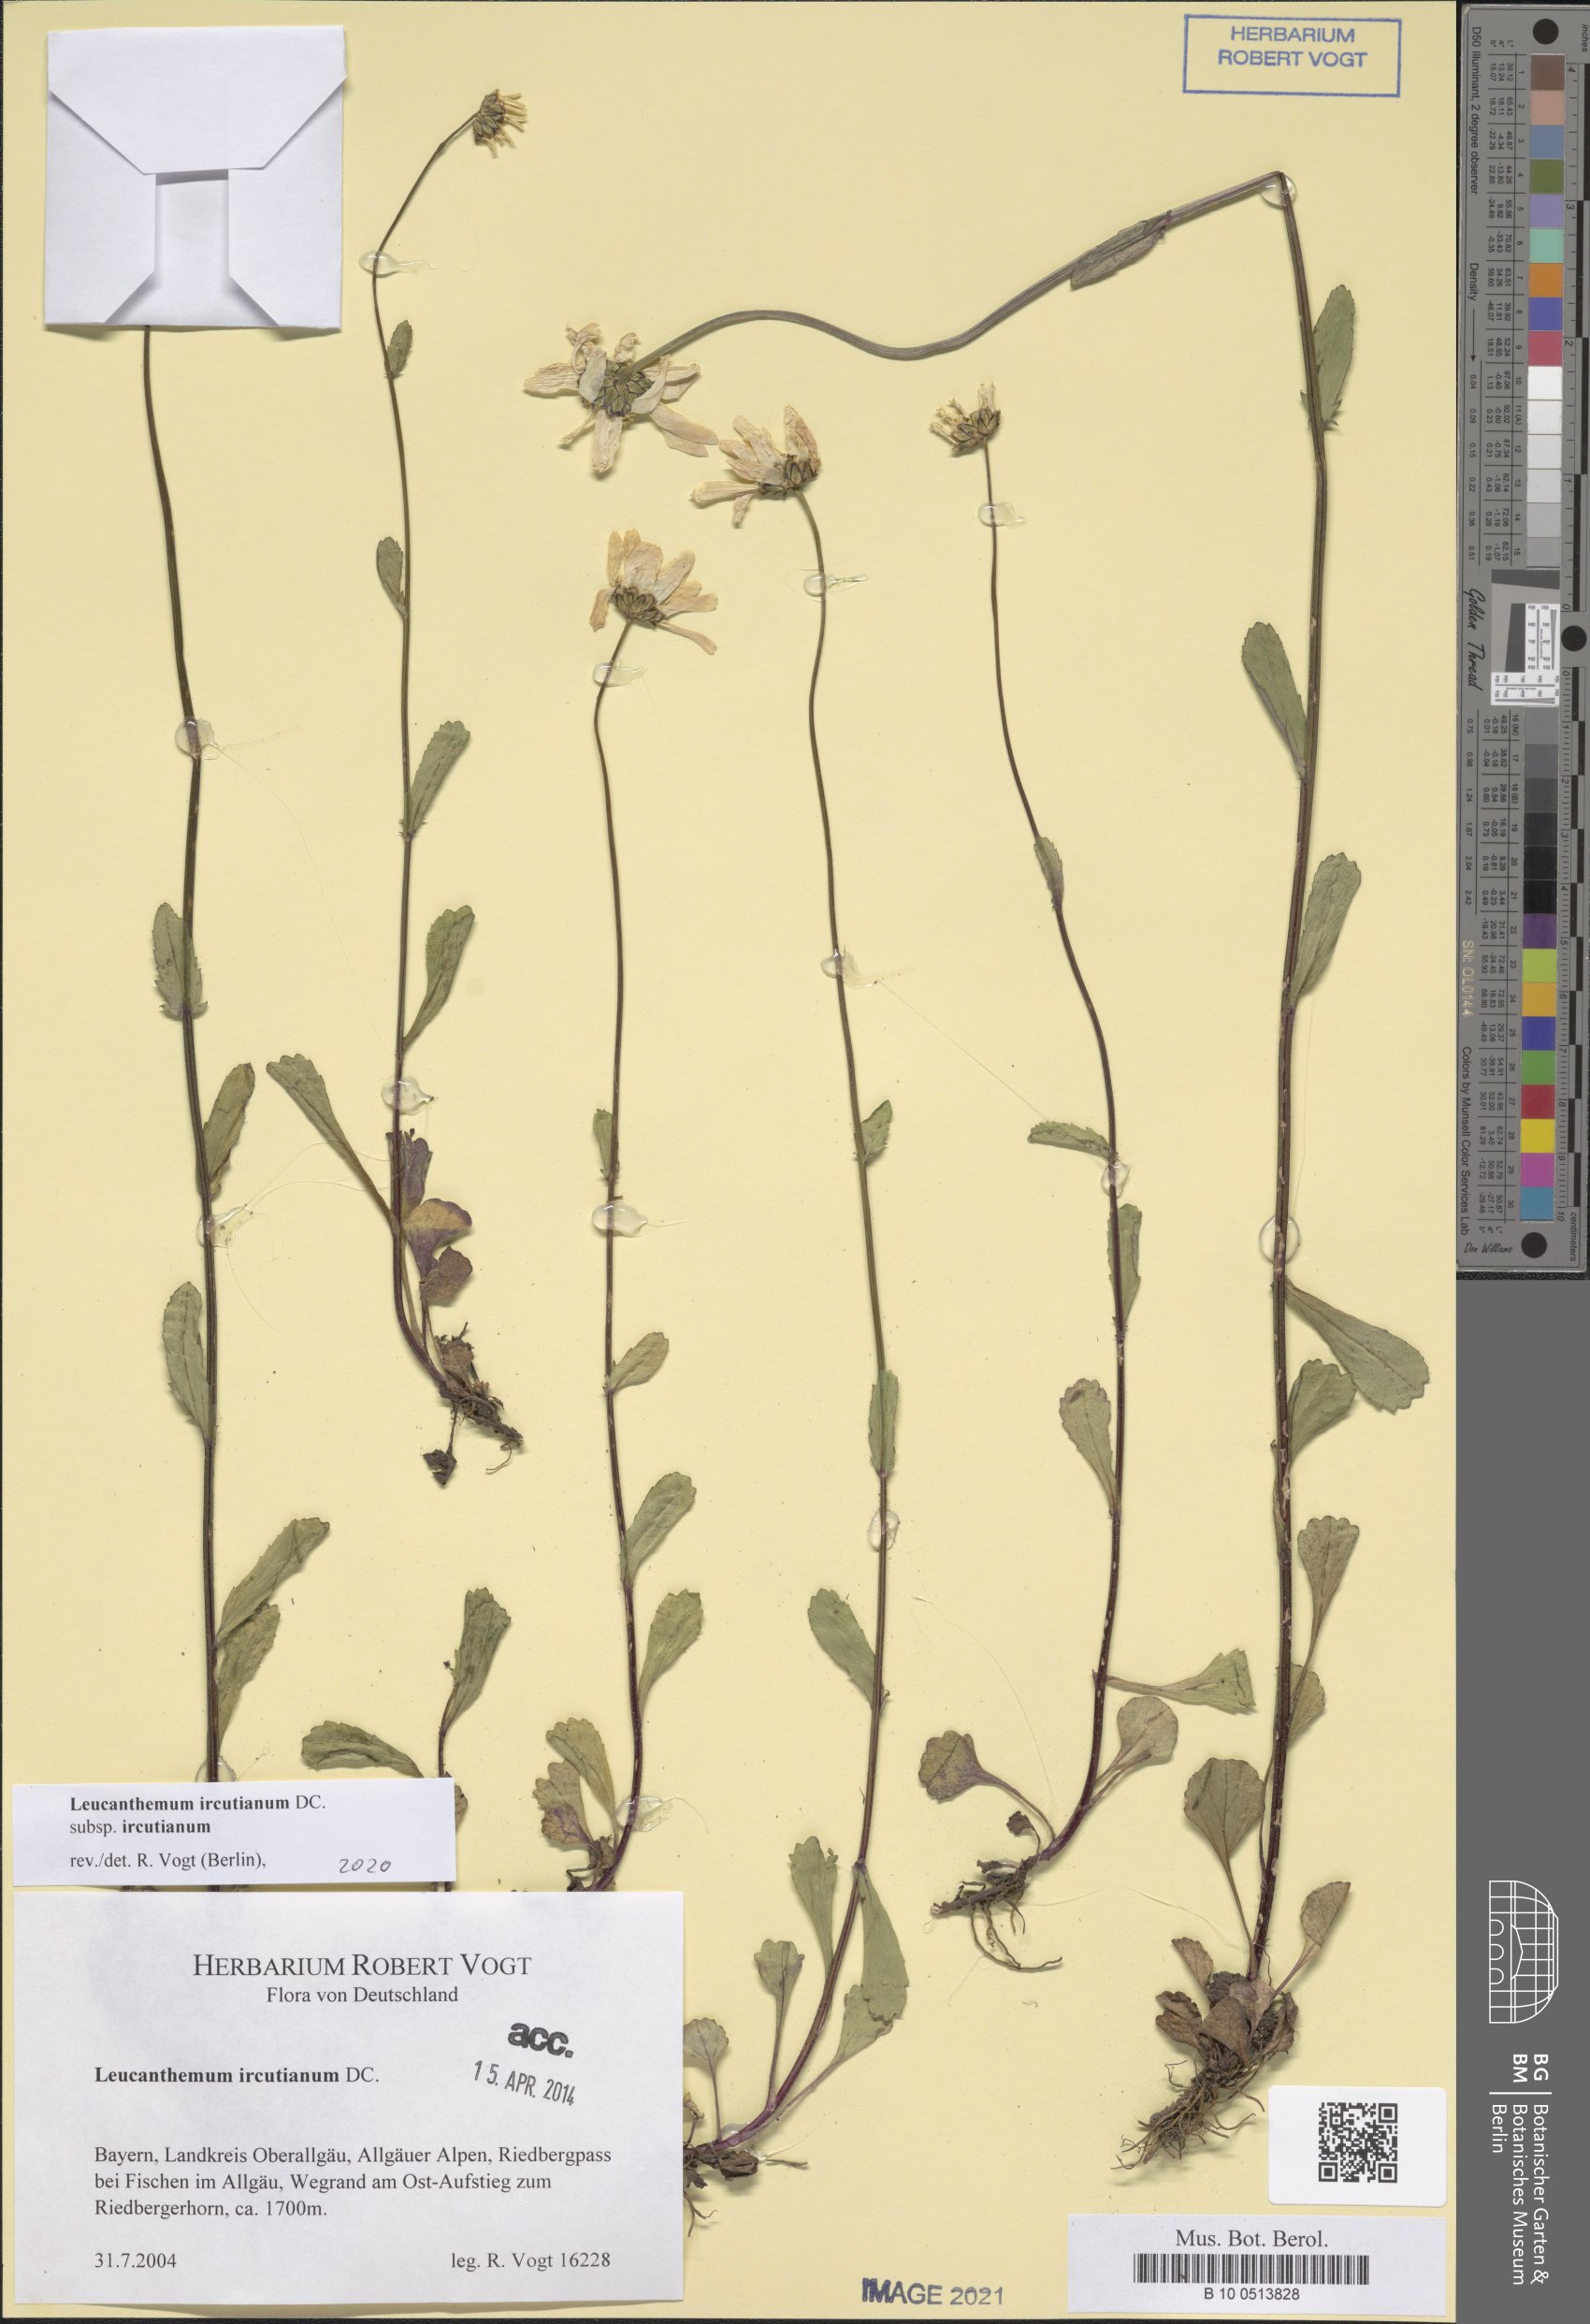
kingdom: Plantae
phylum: Tracheophyta
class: Magnoliopsida
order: Asterales
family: Asteraceae
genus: Leucanthemum
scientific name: Leucanthemum ircutianum
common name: Daisy
